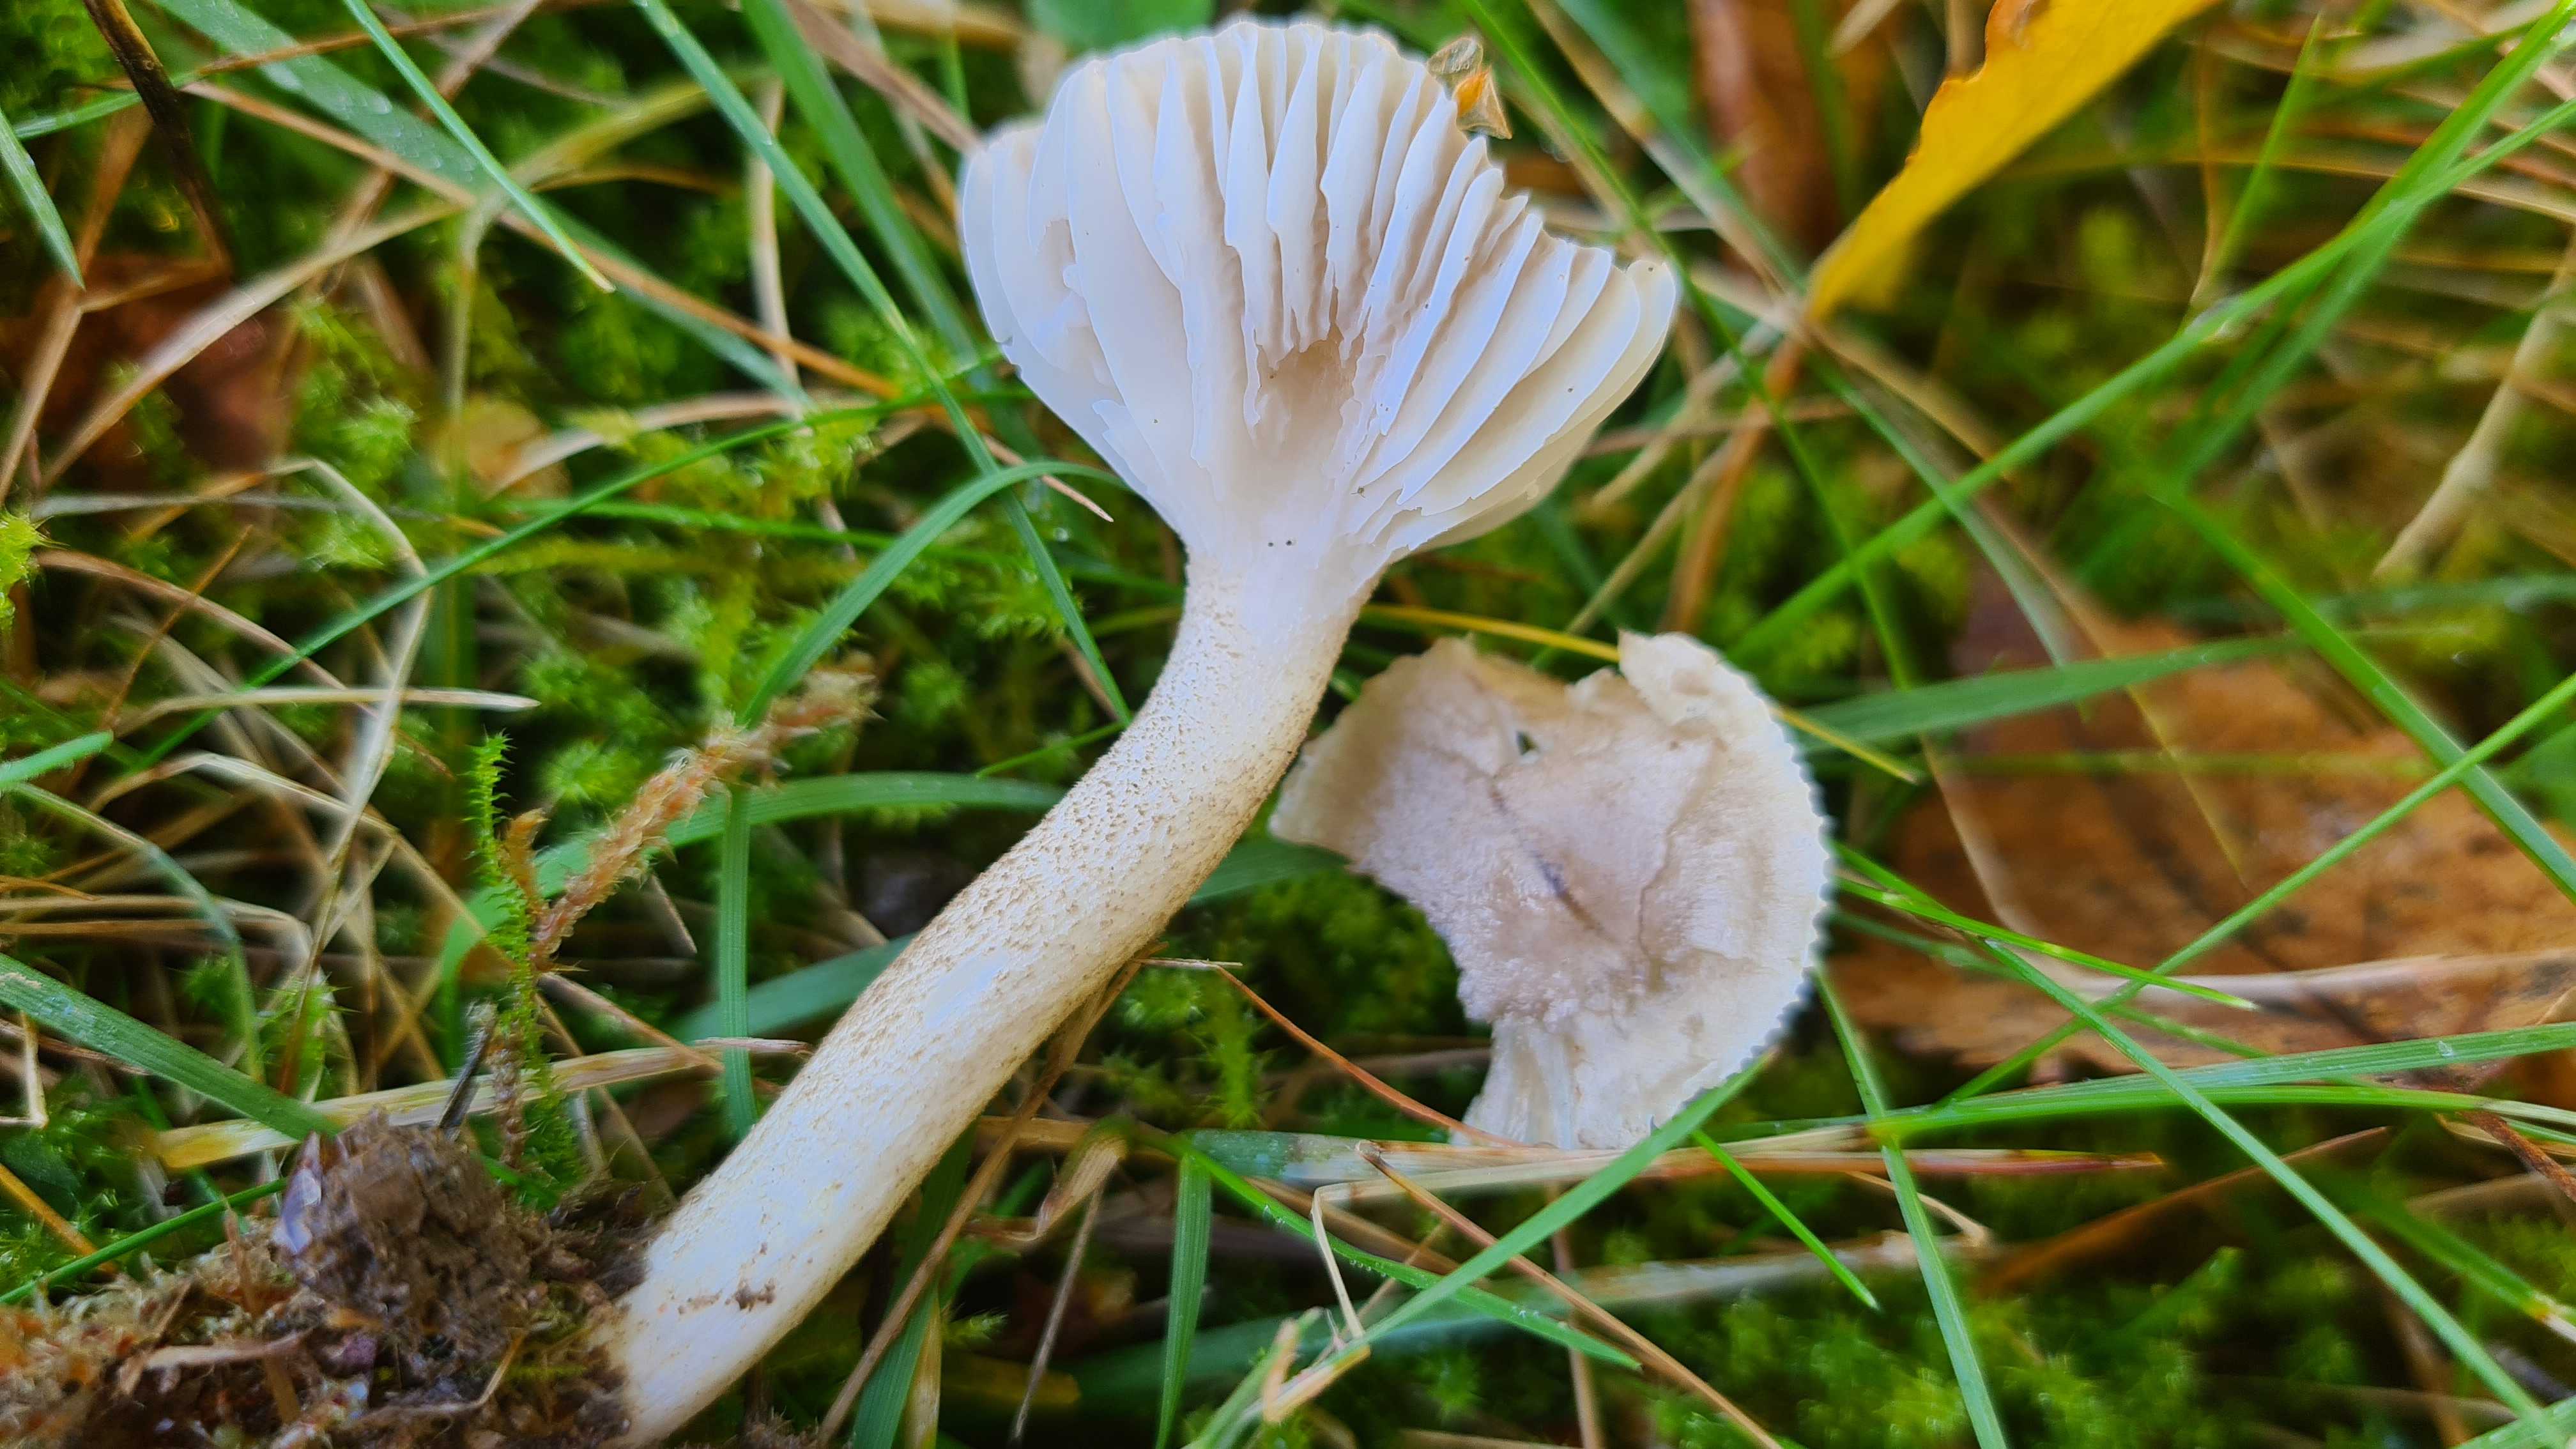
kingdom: Fungi
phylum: Basidiomycota
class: Agaricomycetes
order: Agaricales
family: Hygrophoraceae
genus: Hygrophorus
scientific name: Hygrophorus pustulatus
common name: mørkprikket sneglehat
